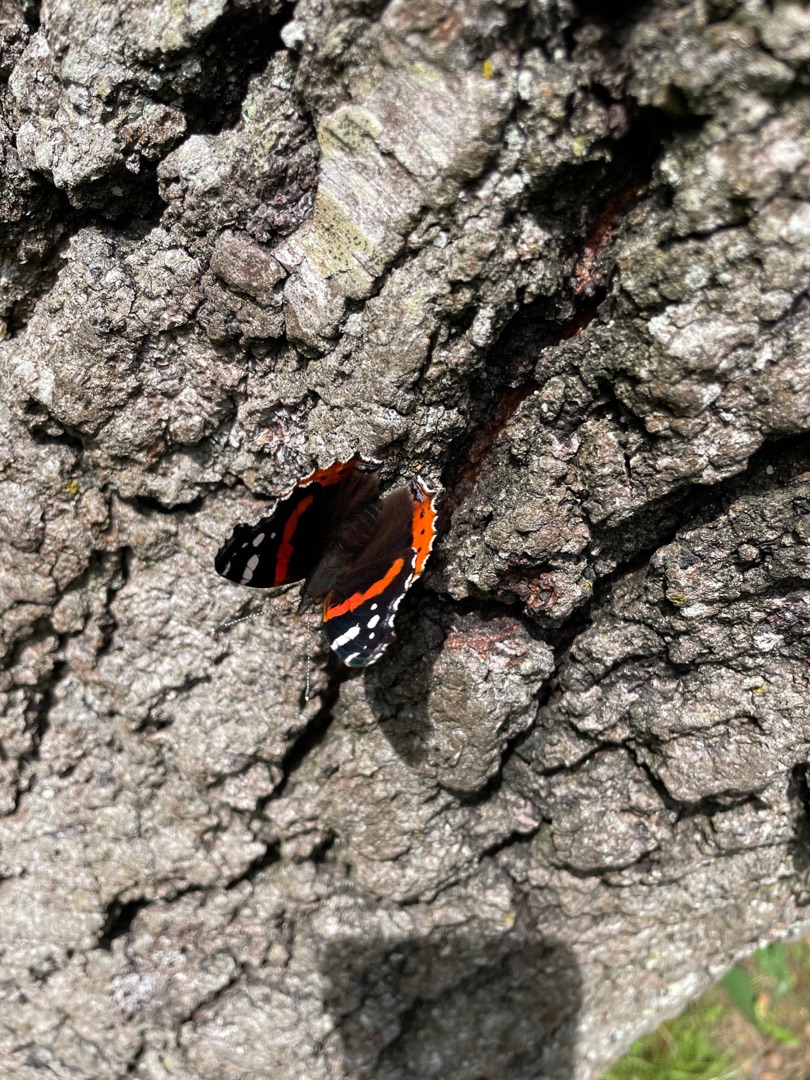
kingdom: Animalia
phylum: Arthropoda
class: Insecta
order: Lepidoptera
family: Nymphalidae
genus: Vanessa
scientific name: Vanessa atalanta
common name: Admiral
